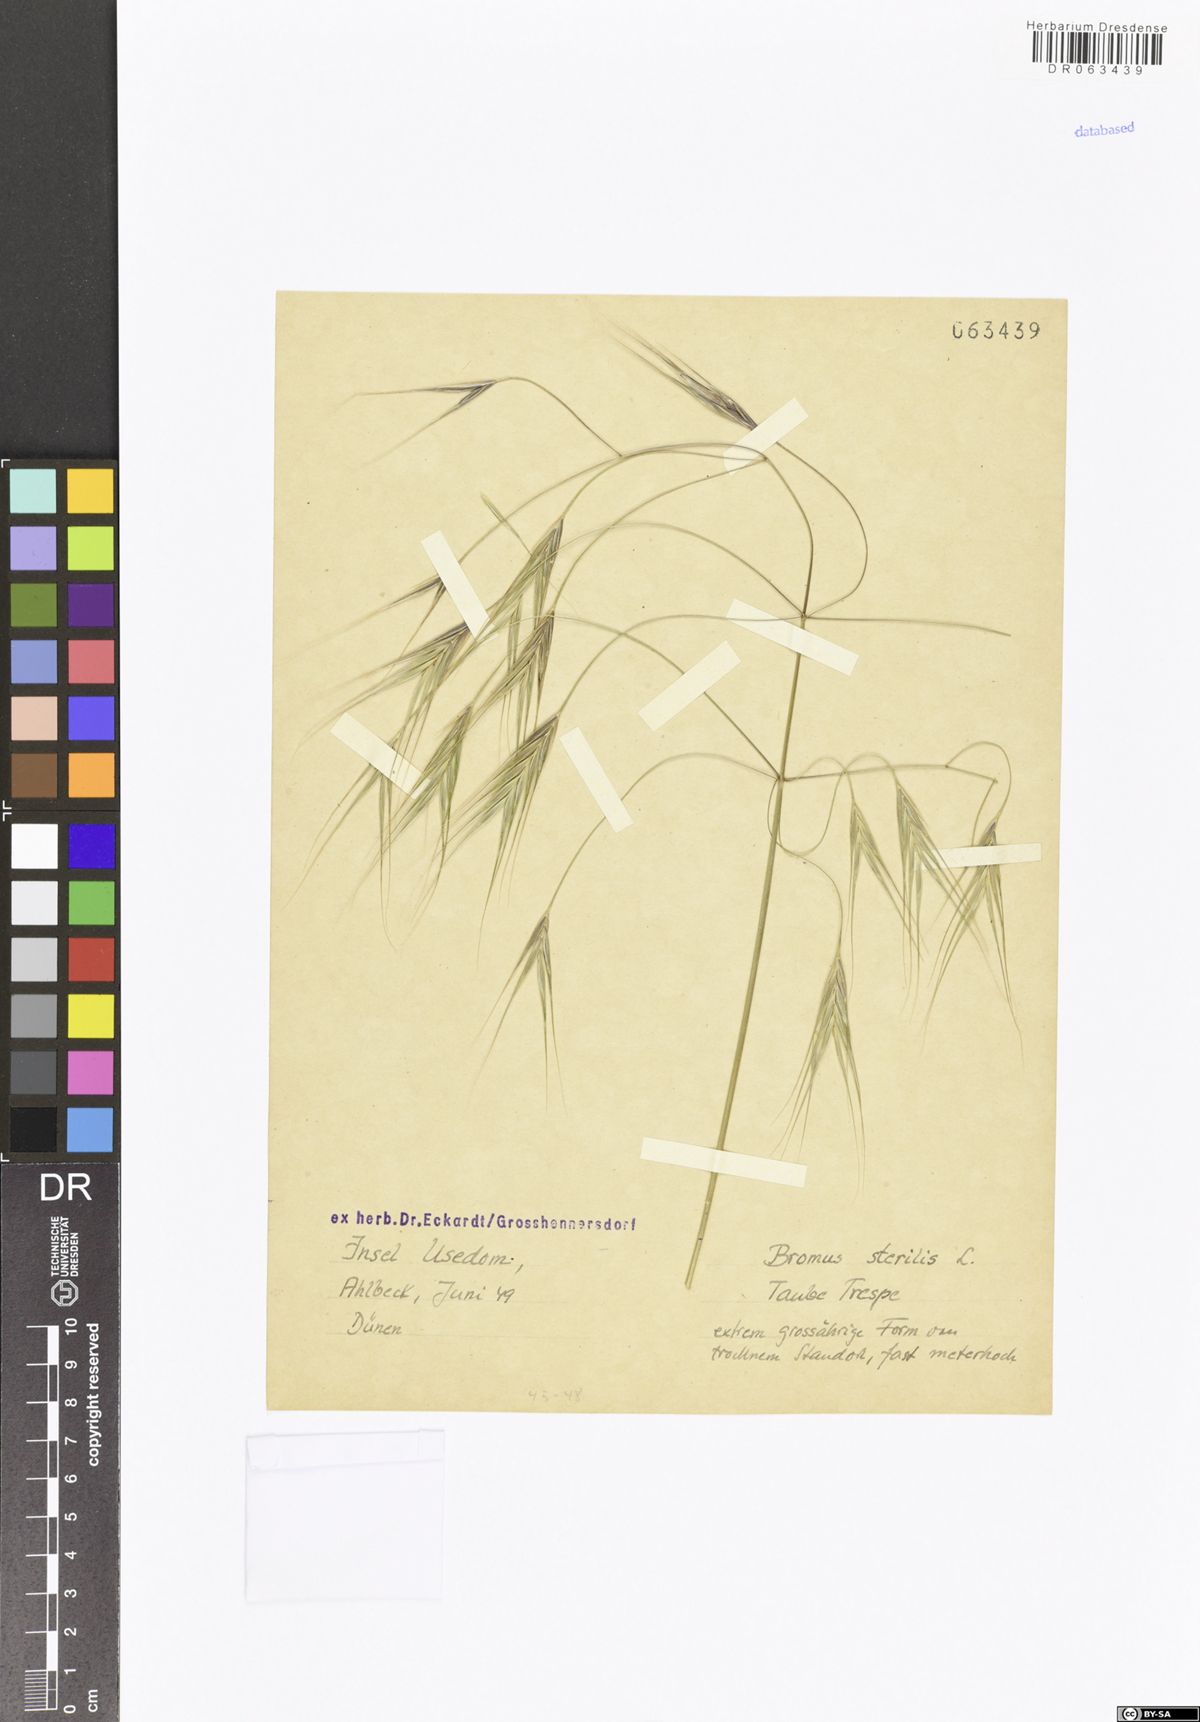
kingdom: Plantae
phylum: Tracheophyta
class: Liliopsida
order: Poales
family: Poaceae
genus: Bromus
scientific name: Bromus sterilis
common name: Poverty brome
